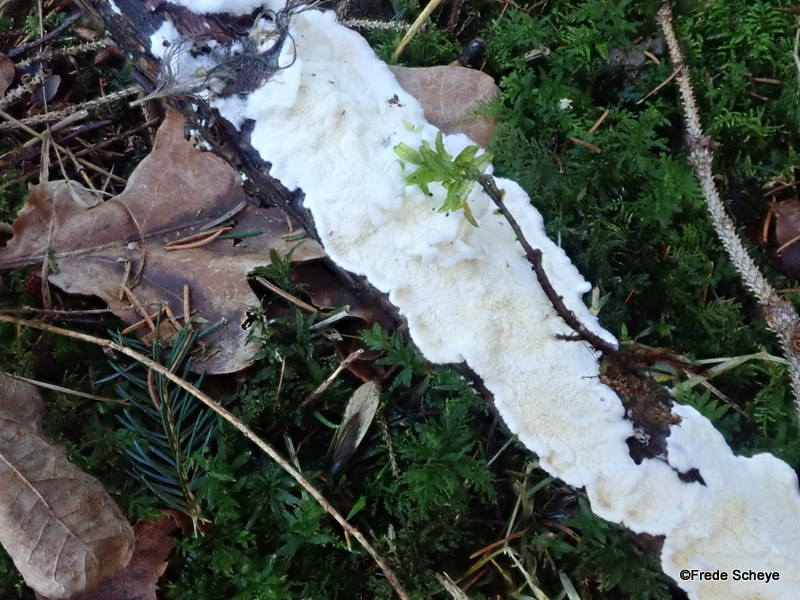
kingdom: Fungi
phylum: Basidiomycota
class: Agaricomycetes
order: Polyporales
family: Irpicaceae
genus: Byssomerulius
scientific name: Byssomerulius corium
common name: læder-åresvamp
